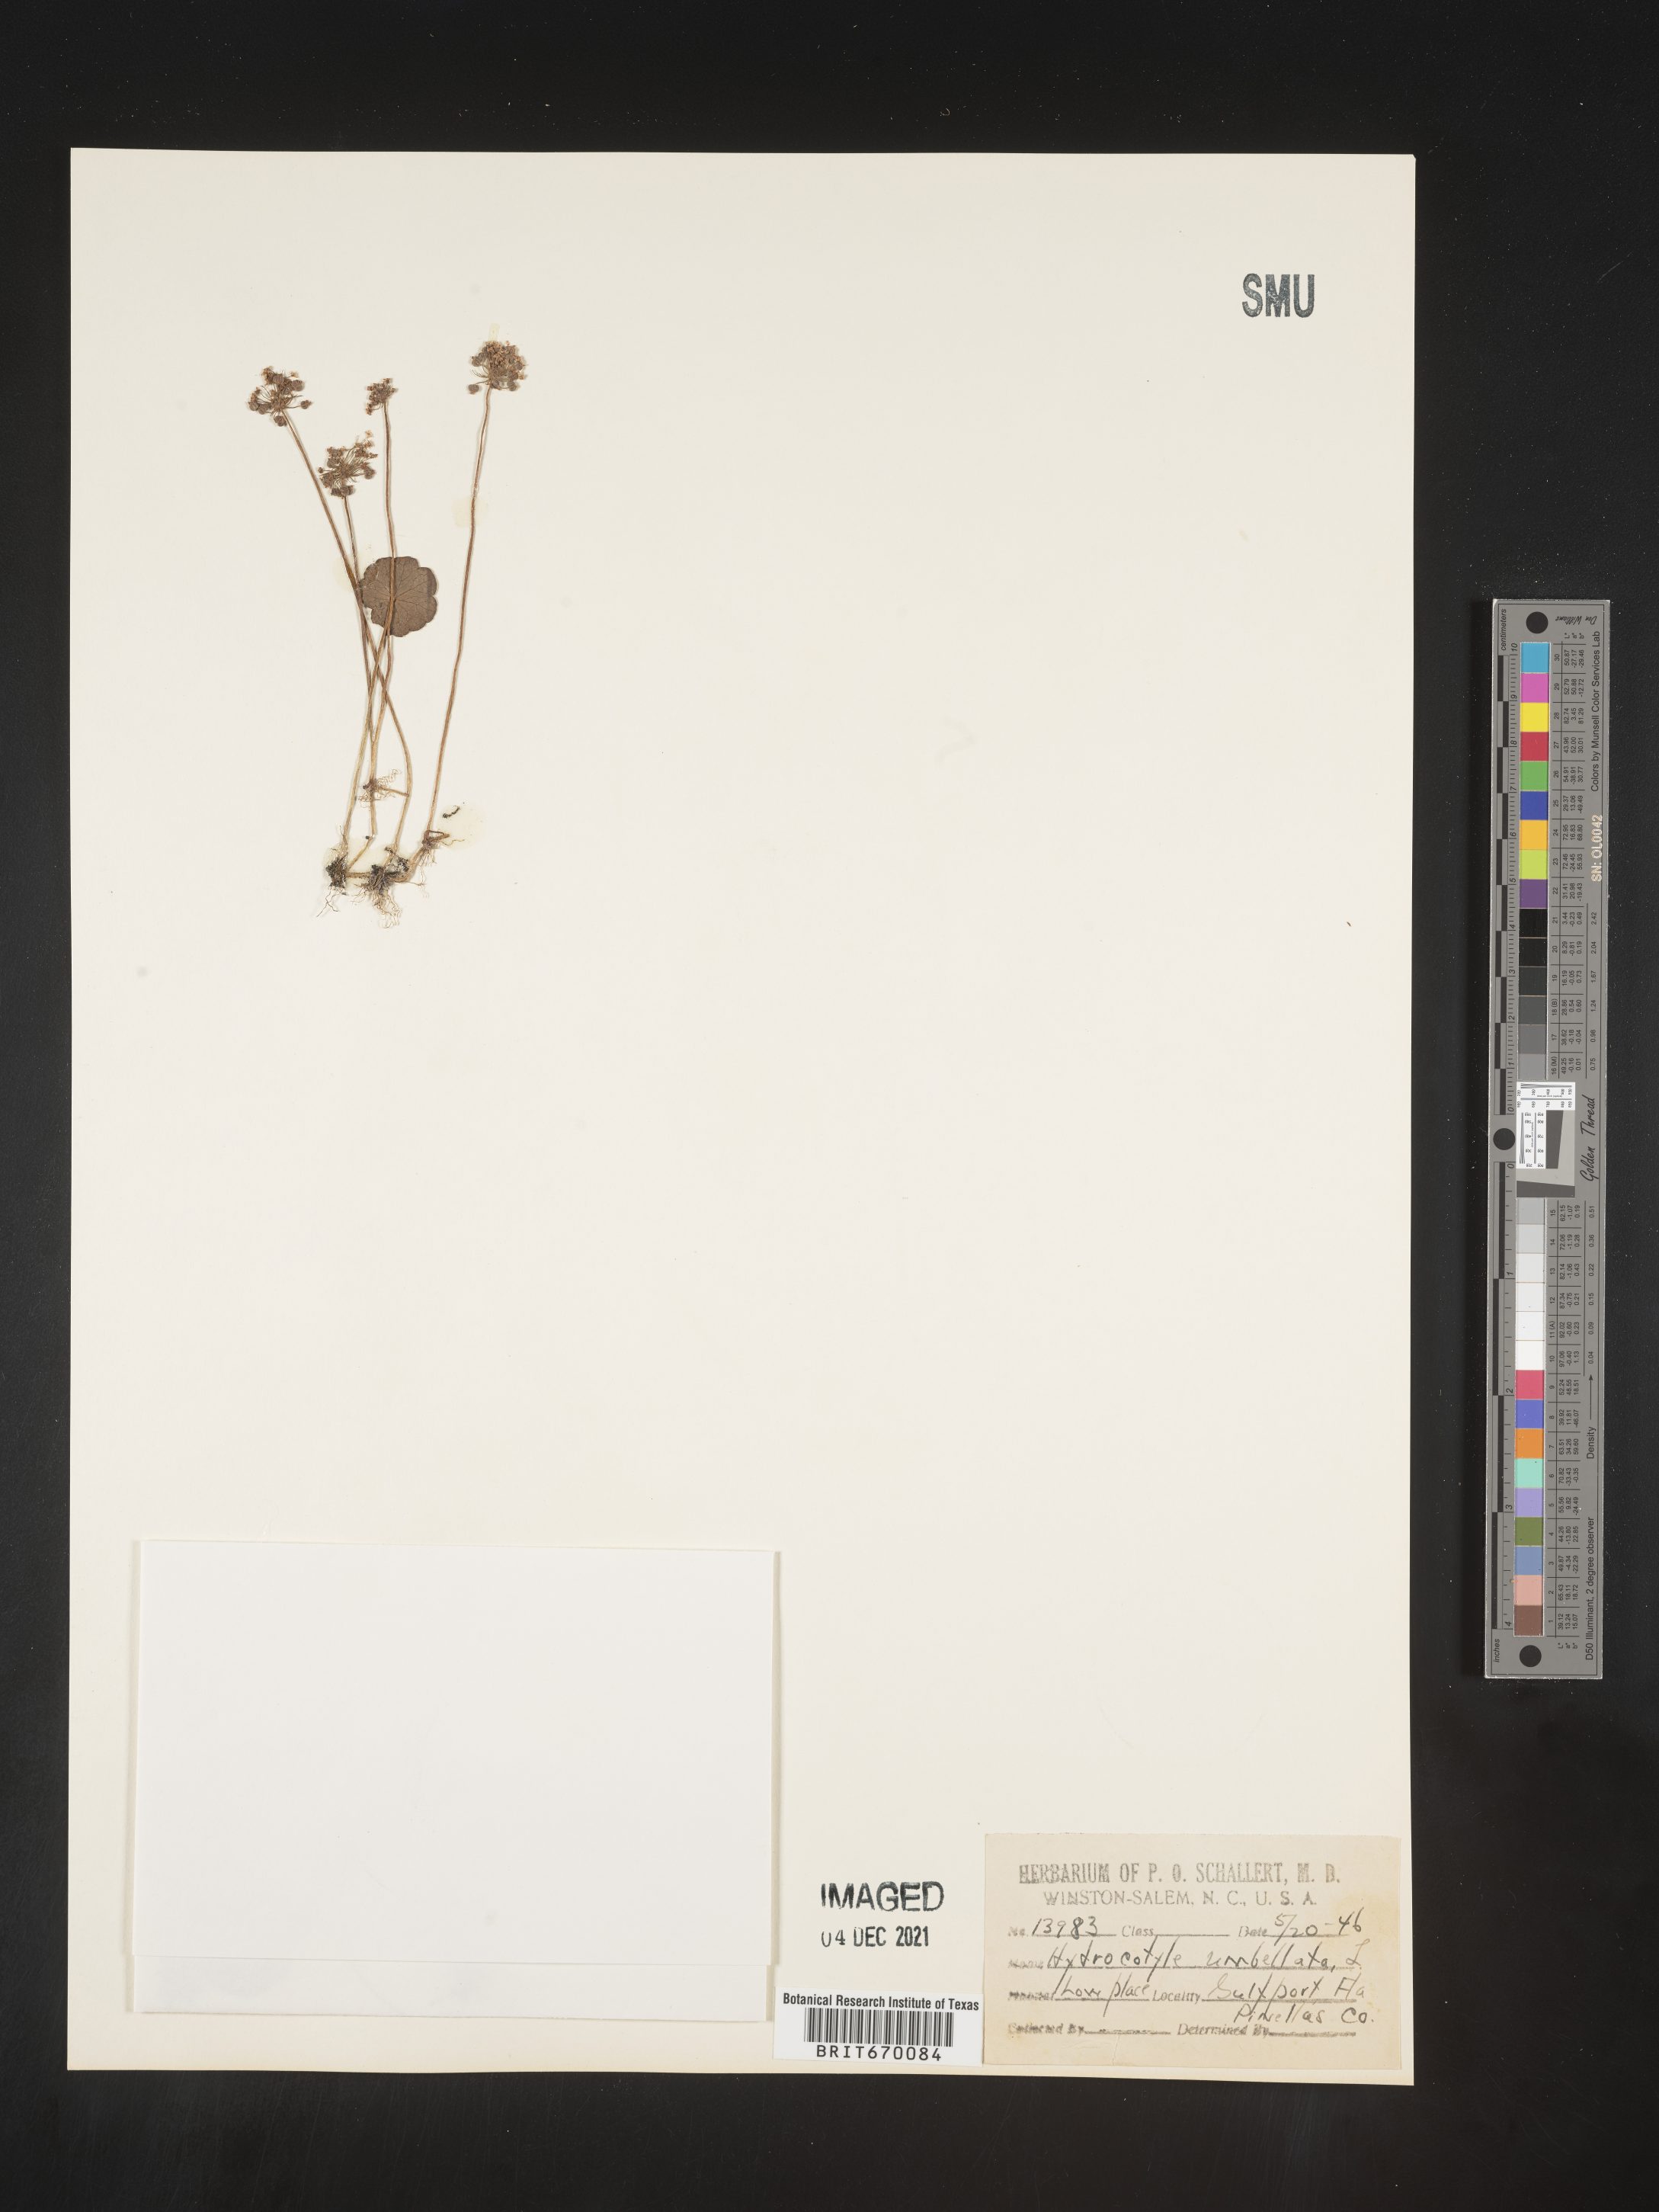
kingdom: Plantae
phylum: Tracheophyta
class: Magnoliopsida
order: Apiales
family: Araliaceae
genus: Hydrocotyle
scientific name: Hydrocotyle umbellata
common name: Water pennywort
